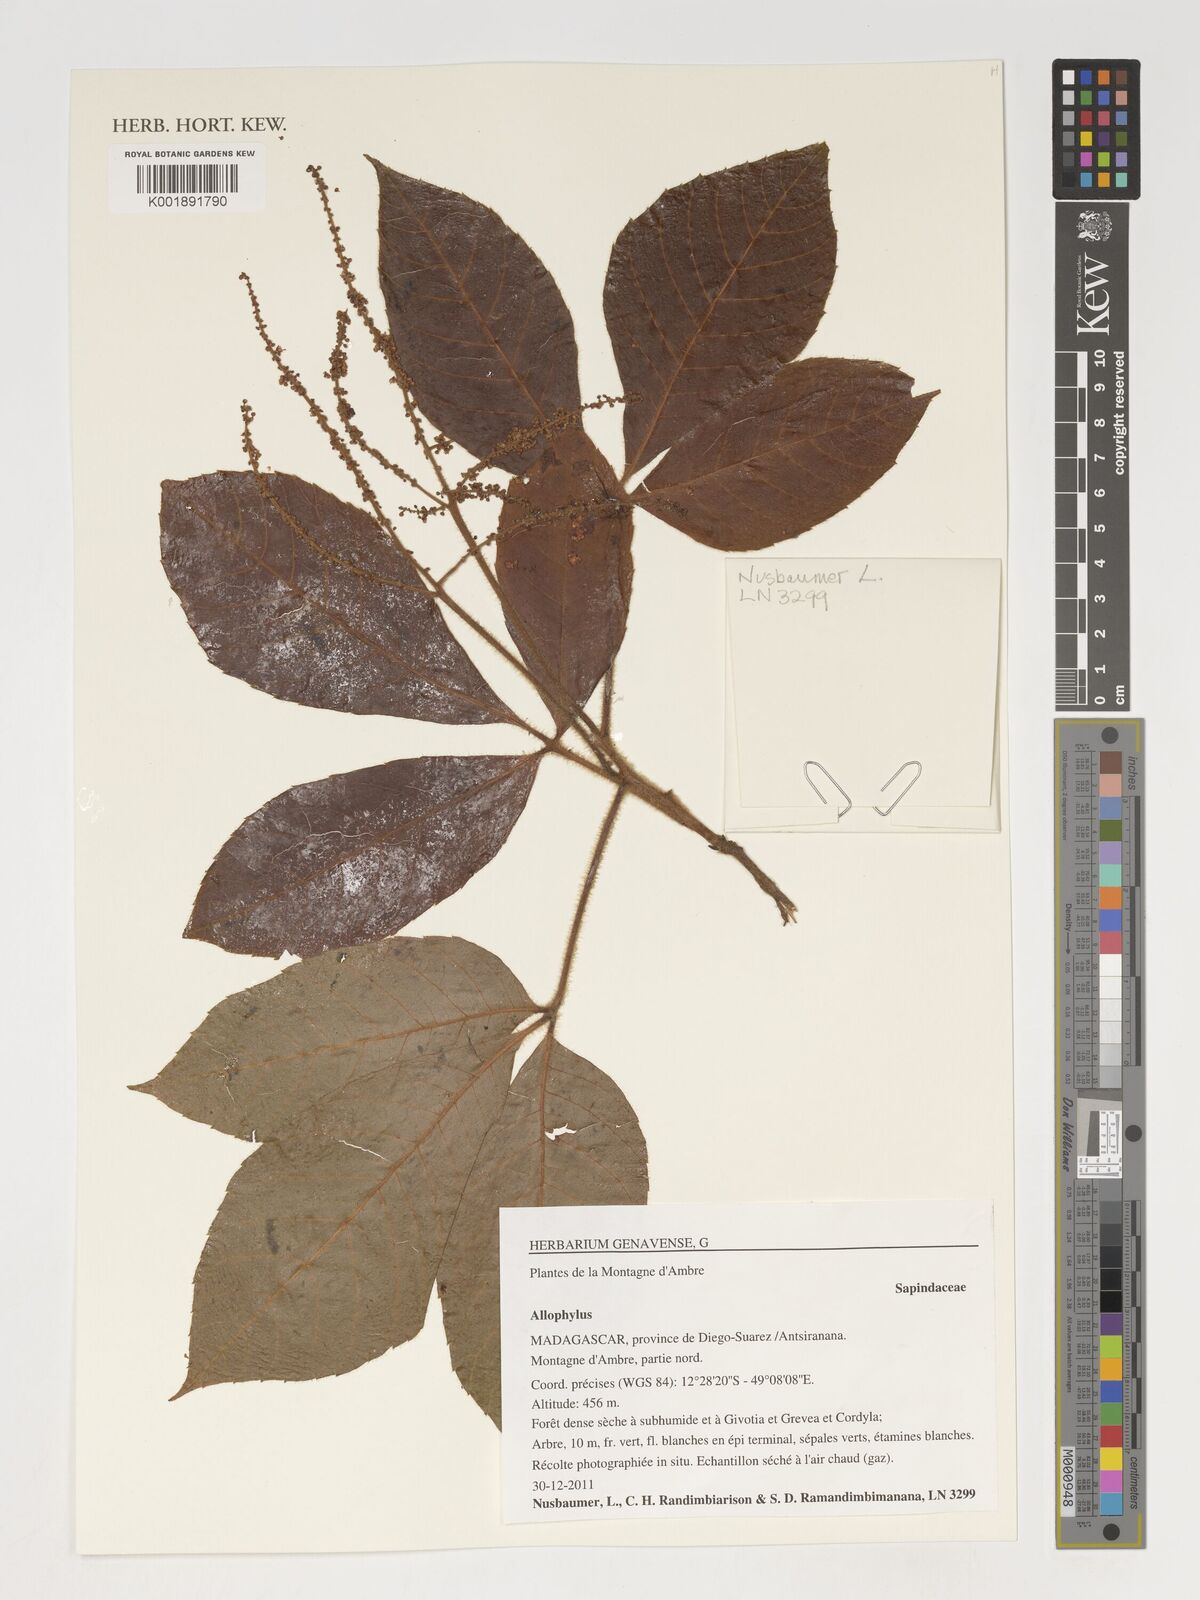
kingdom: Plantae
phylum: Tracheophyta
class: Magnoliopsida
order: Sapindales
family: Sapindaceae
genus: Allophylus
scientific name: Allophylus
